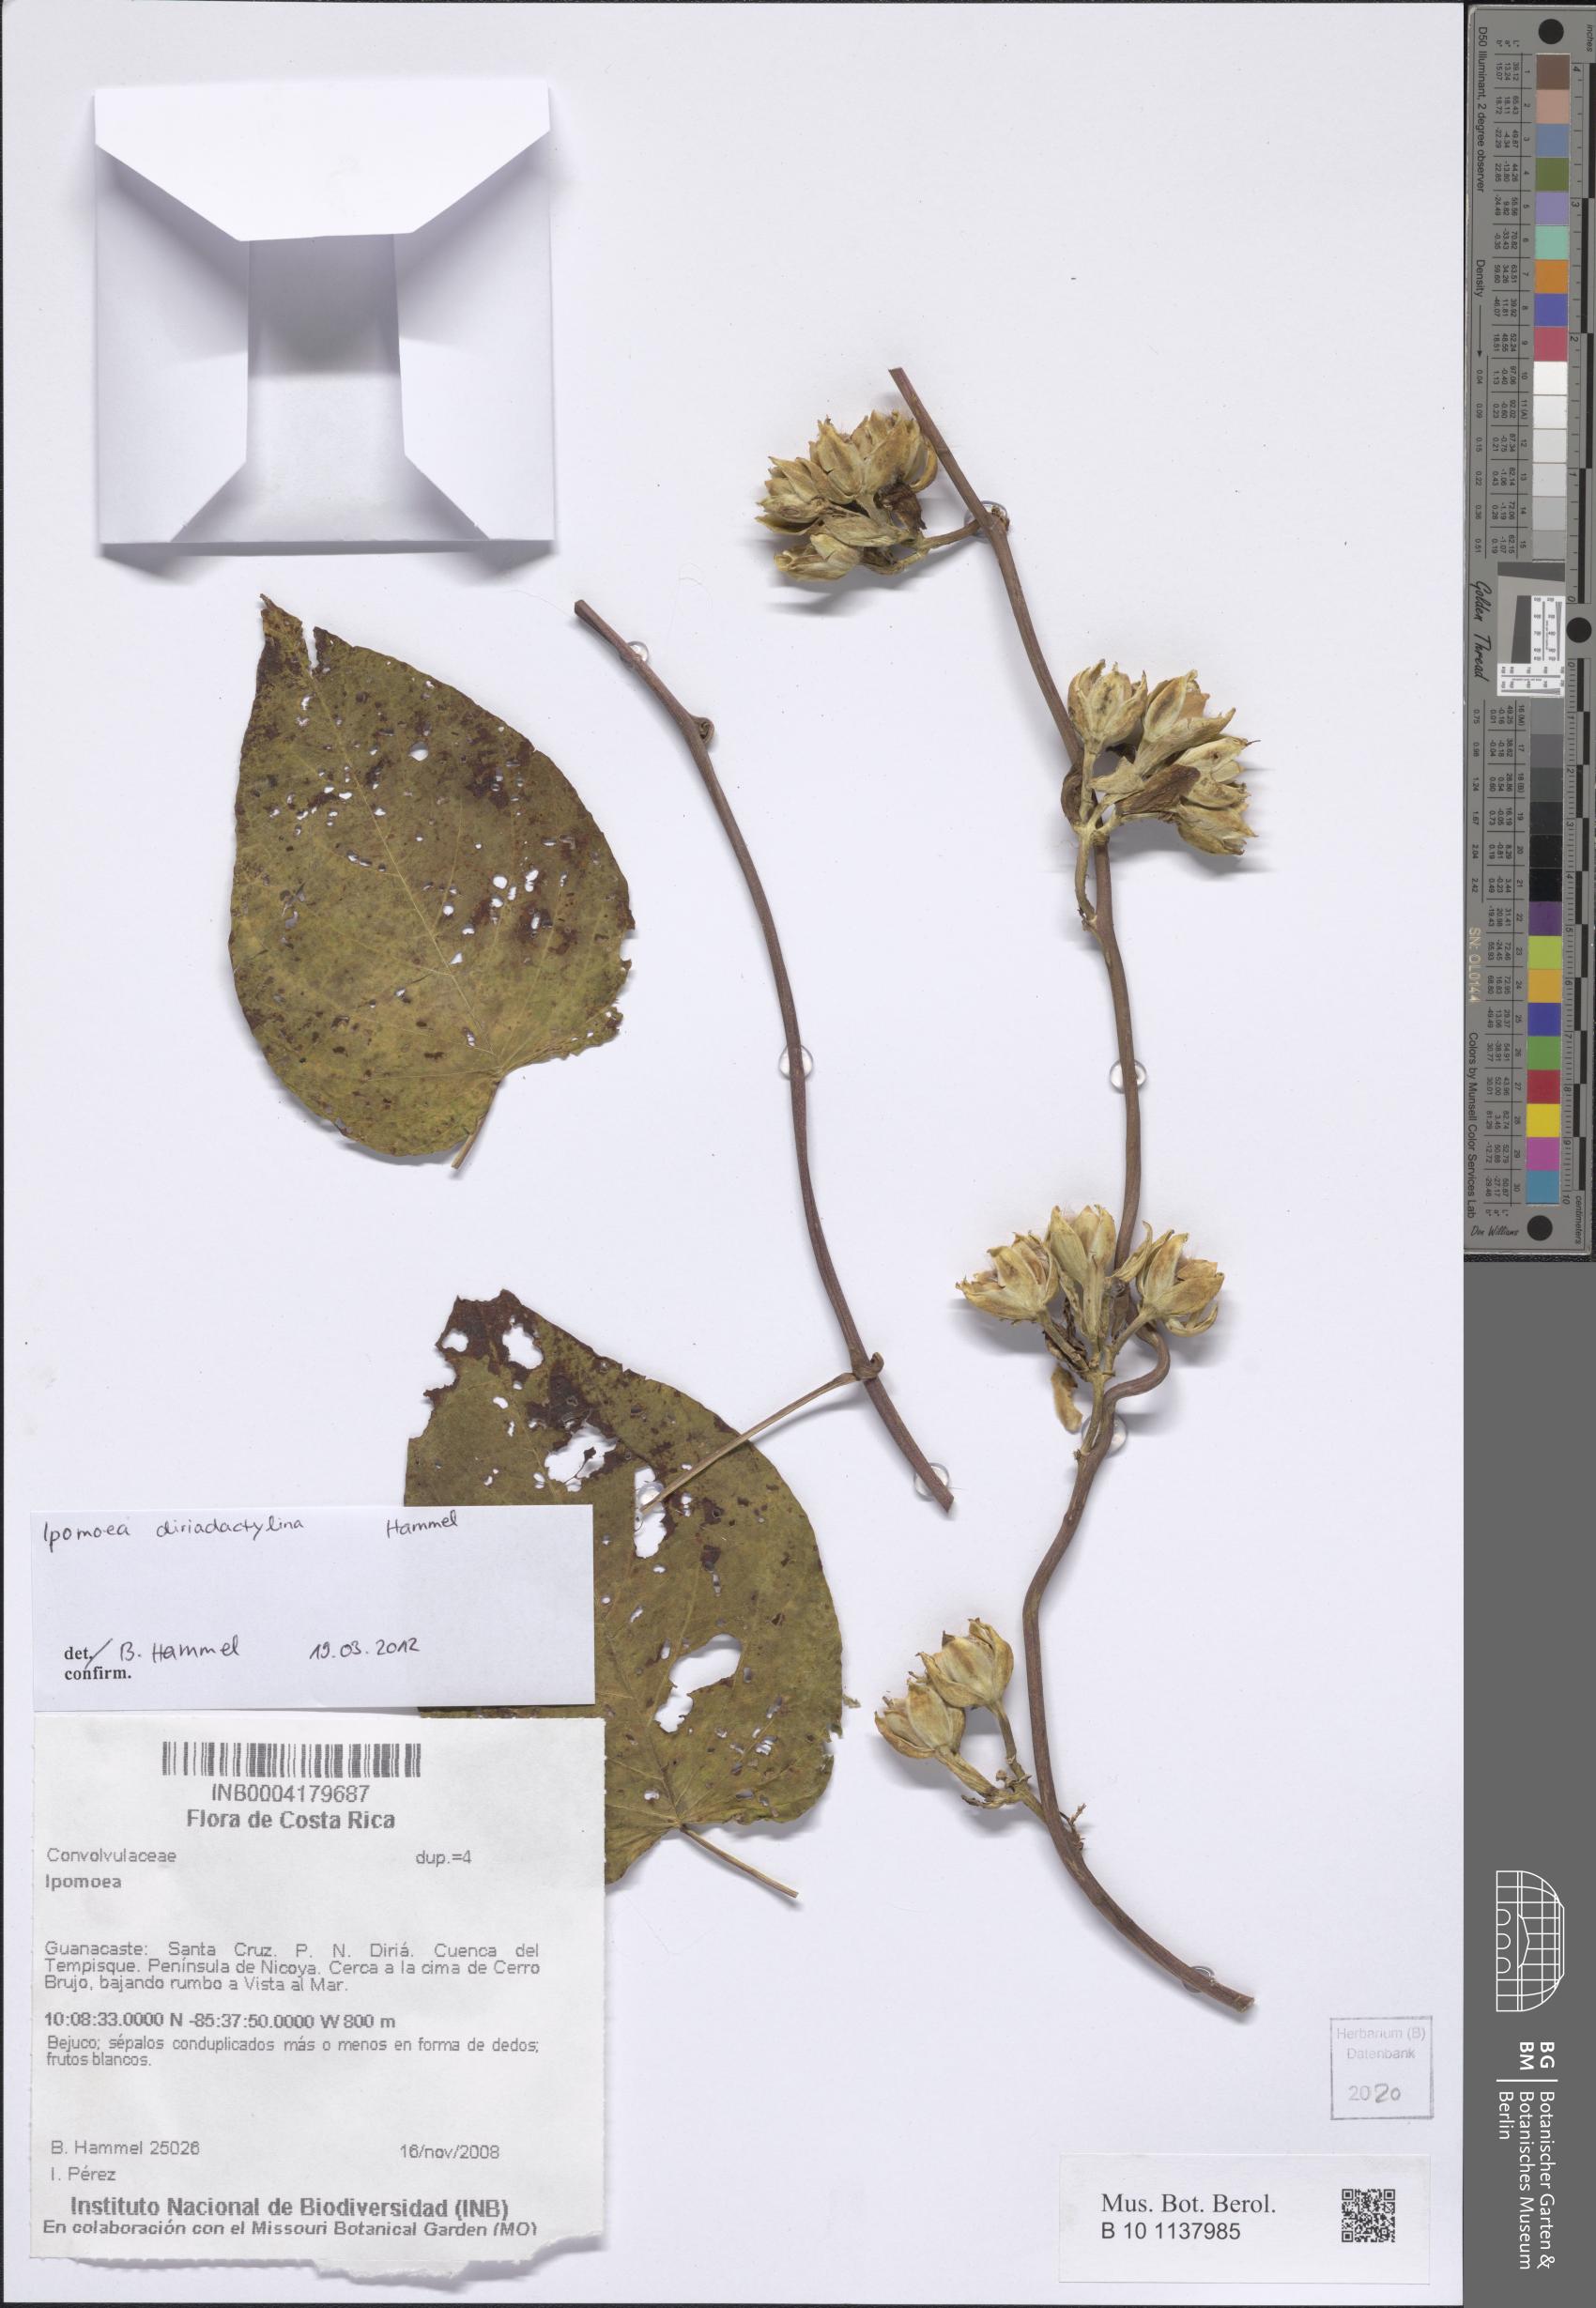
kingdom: Plantae
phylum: Tracheophyta
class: Magnoliopsida
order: Solanales
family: Convolvulaceae
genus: Ipomoea
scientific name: Ipomoea riparum
